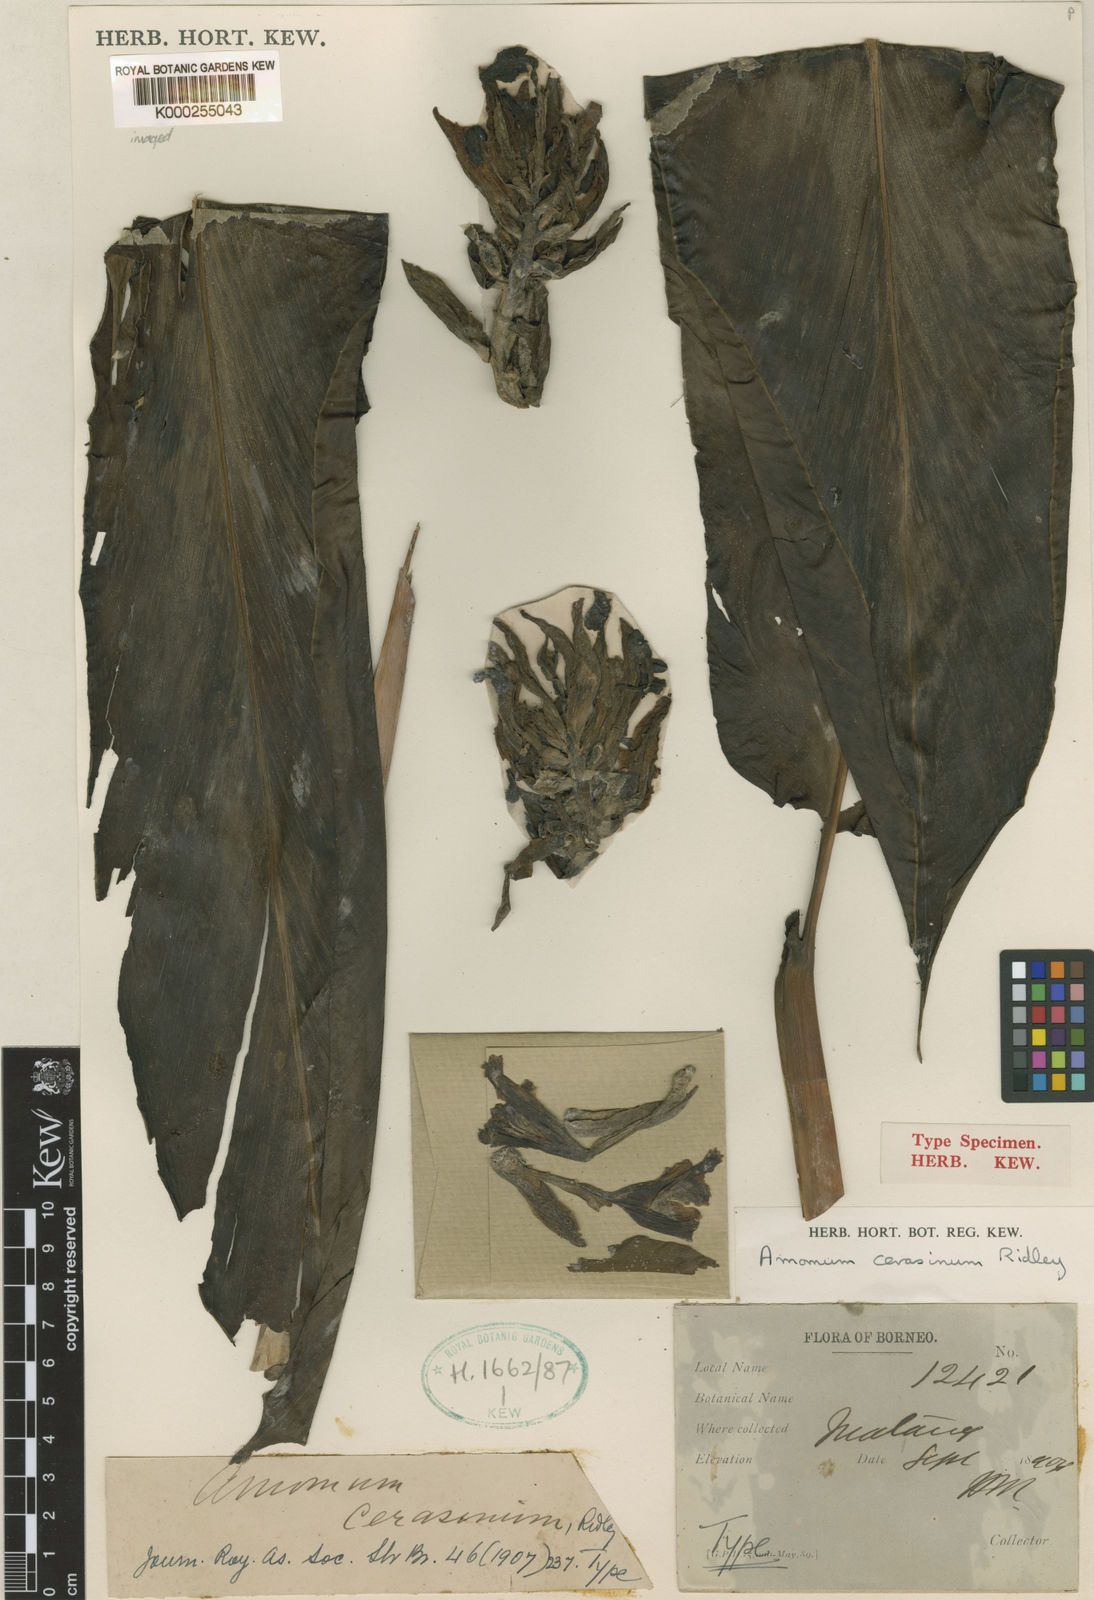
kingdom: Plantae
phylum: Tracheophyta
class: Liliopsida
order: Zingiberales
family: Zingiberaceae
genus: Meistera
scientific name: Meistera cerasina
